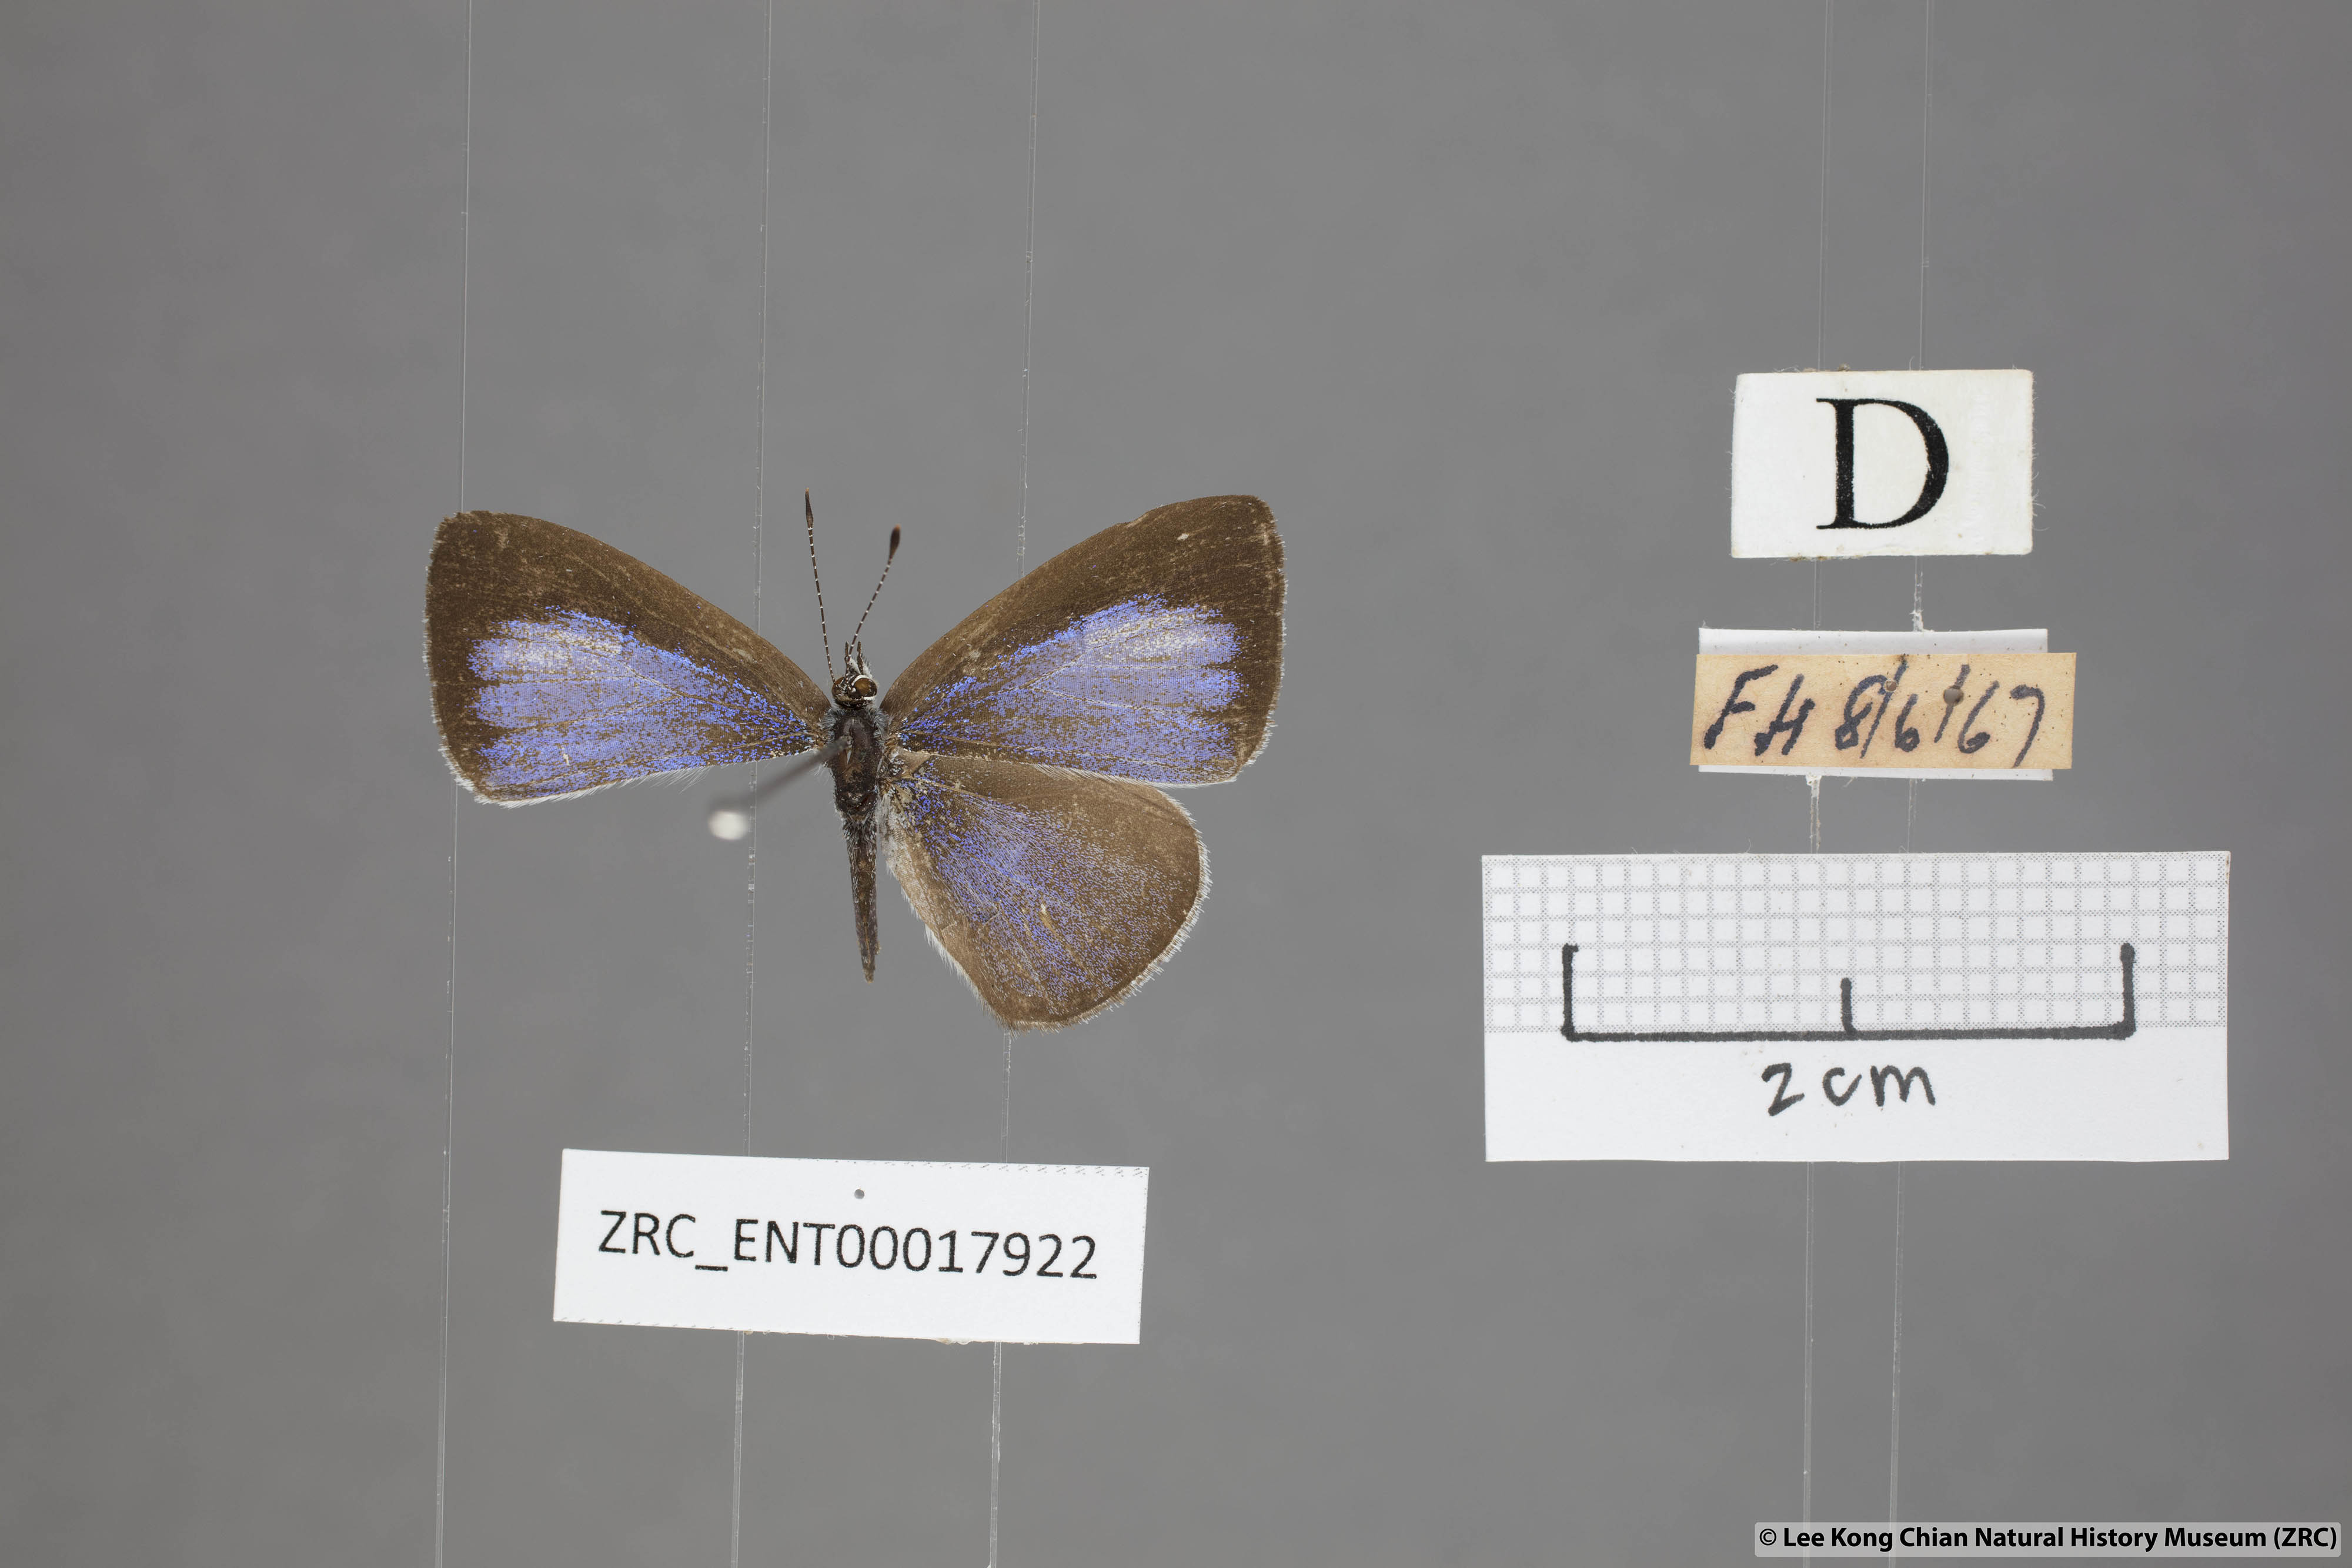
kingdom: Animalia
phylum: Arthropoda
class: Insecta
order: Lepidoptera
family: Lycaenidae
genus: Udara
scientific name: Udara
